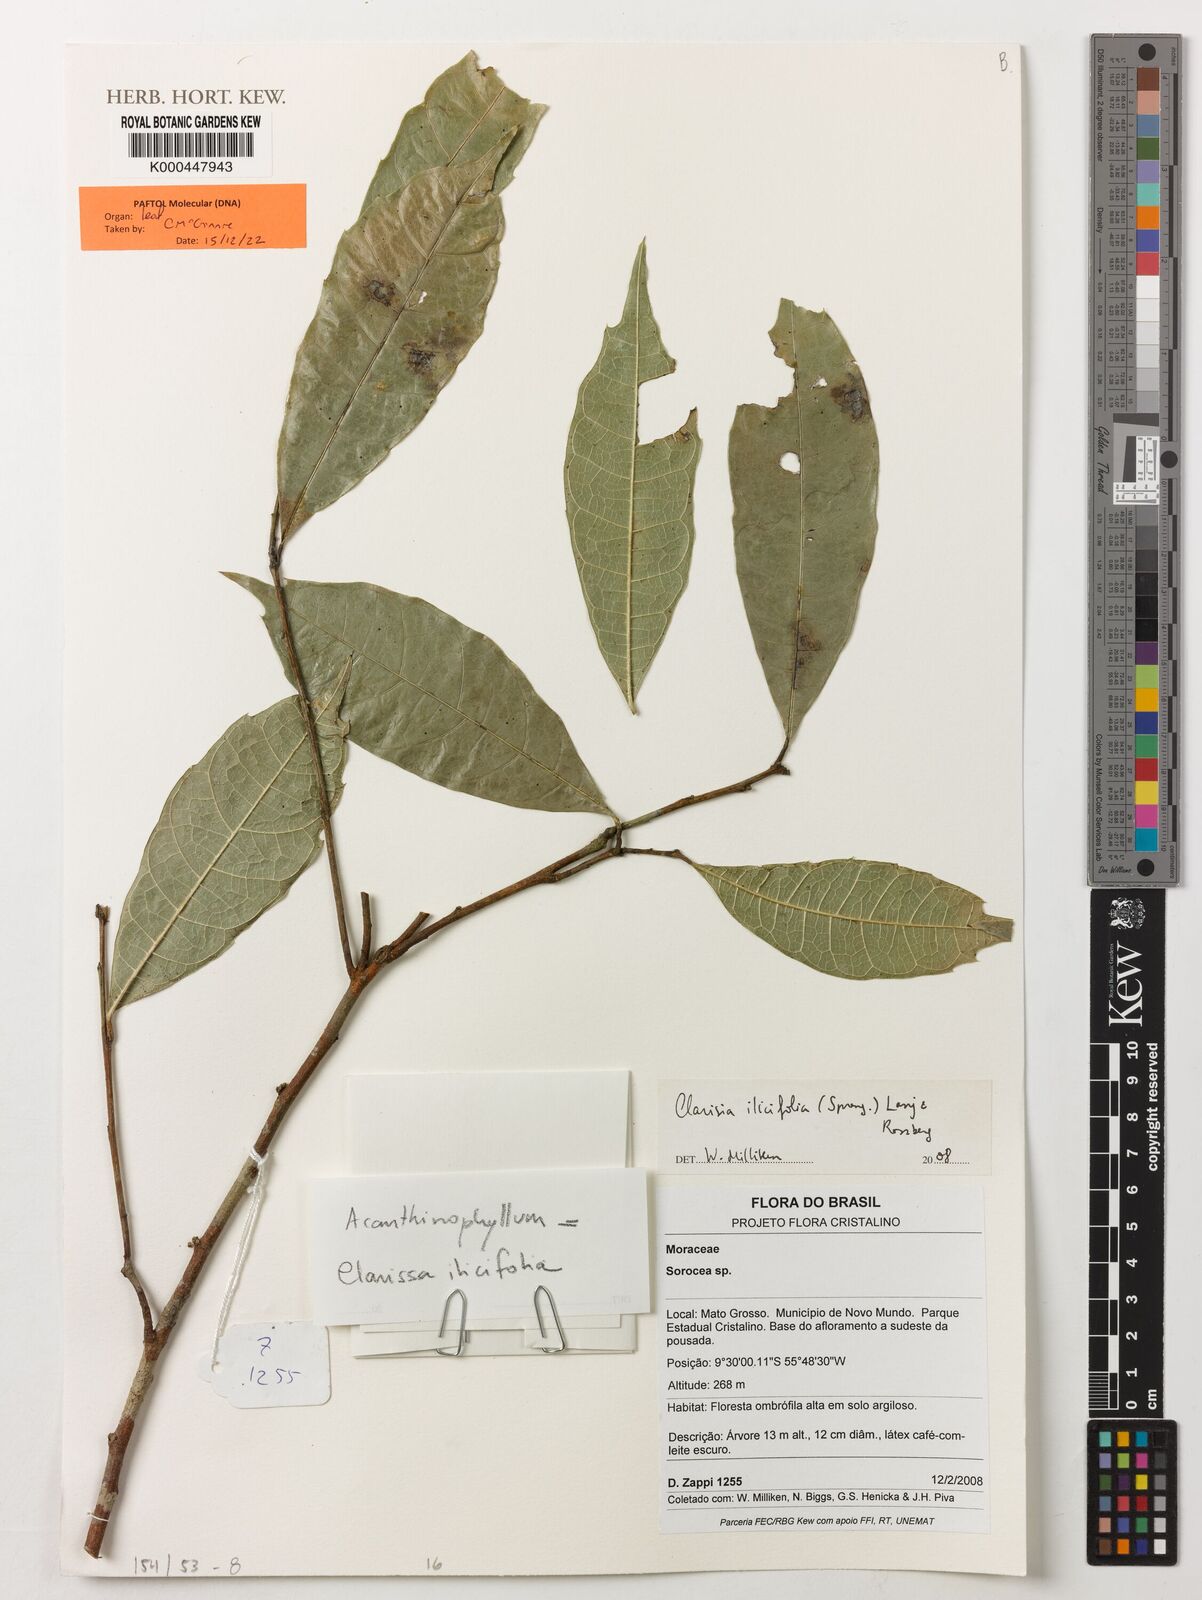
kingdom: Plantae
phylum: Tracheophyta
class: Magnoliopsida
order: Rosales
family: Moraceae
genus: Clarisia
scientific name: Clarisia ilicifolia
